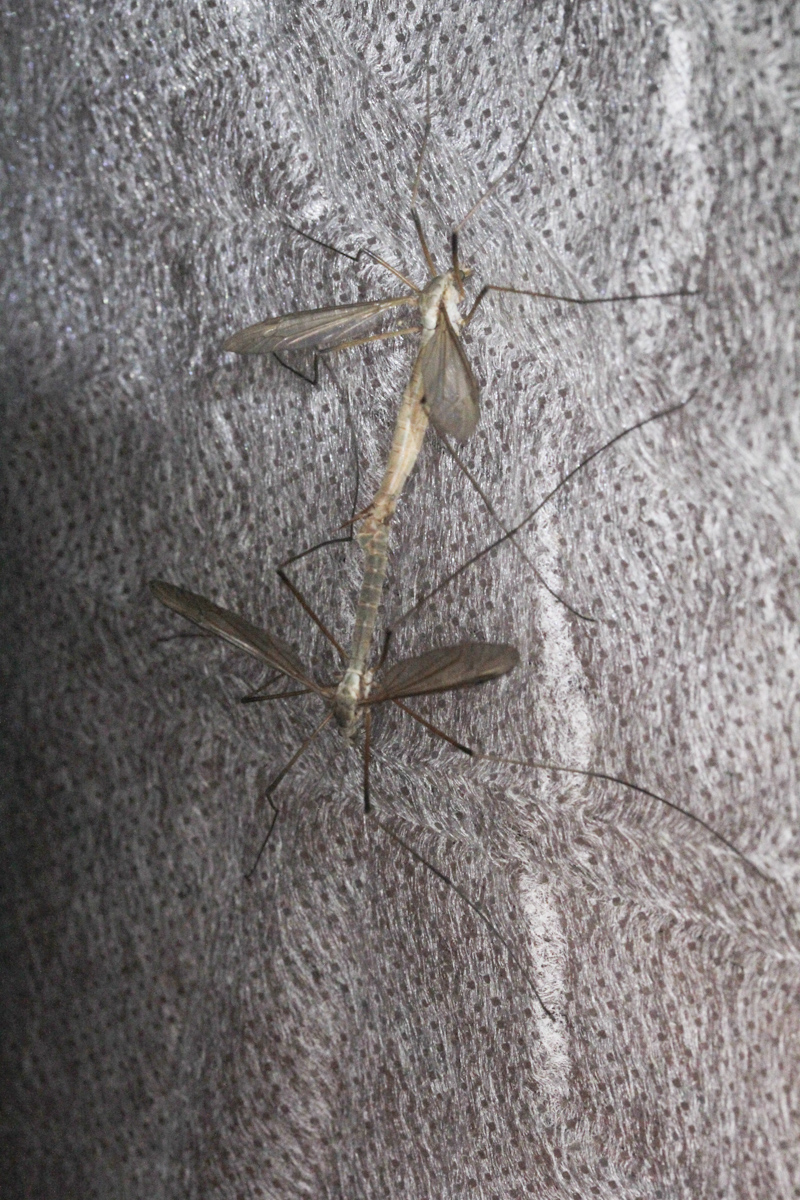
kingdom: Animalia
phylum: Arthropoda
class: Insecta
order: Diptera
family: Tipulidae
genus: Tipula
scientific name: Tipula
